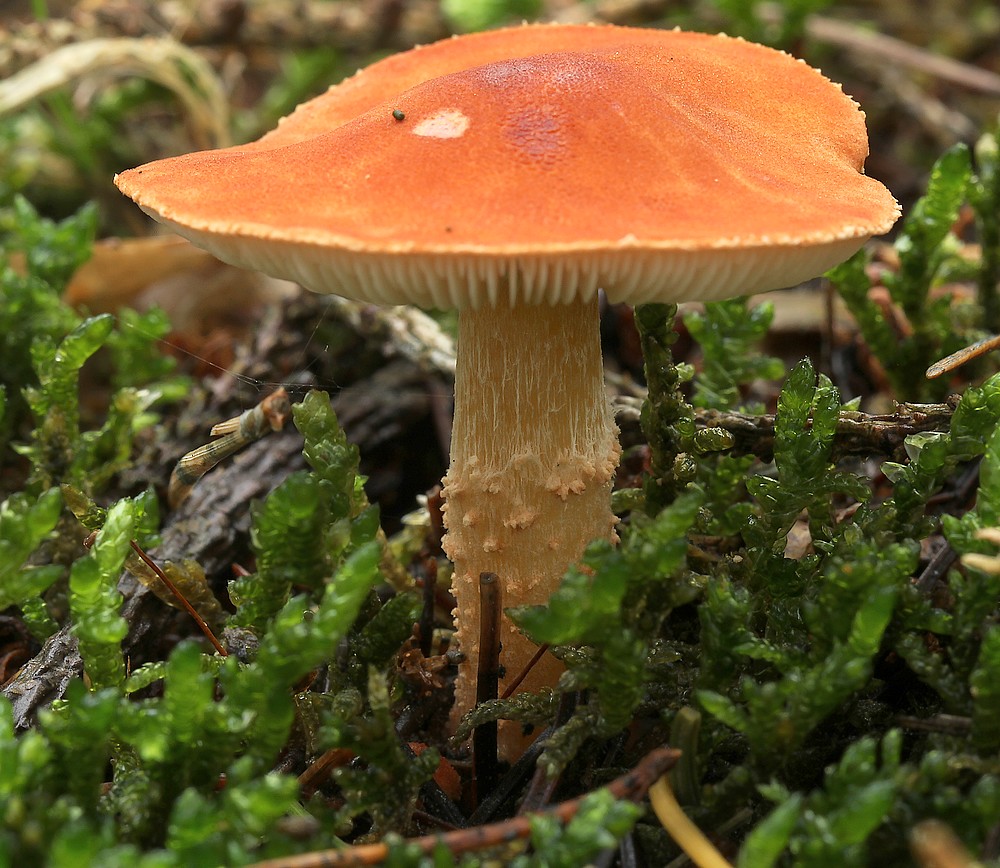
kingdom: Fungi
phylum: Basidiomycota
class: Agaricomycetes
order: Agaricales
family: Agaricaceae
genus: Cystodermella
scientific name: Cystodermella cinnabarina
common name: cinnober-grynhat
